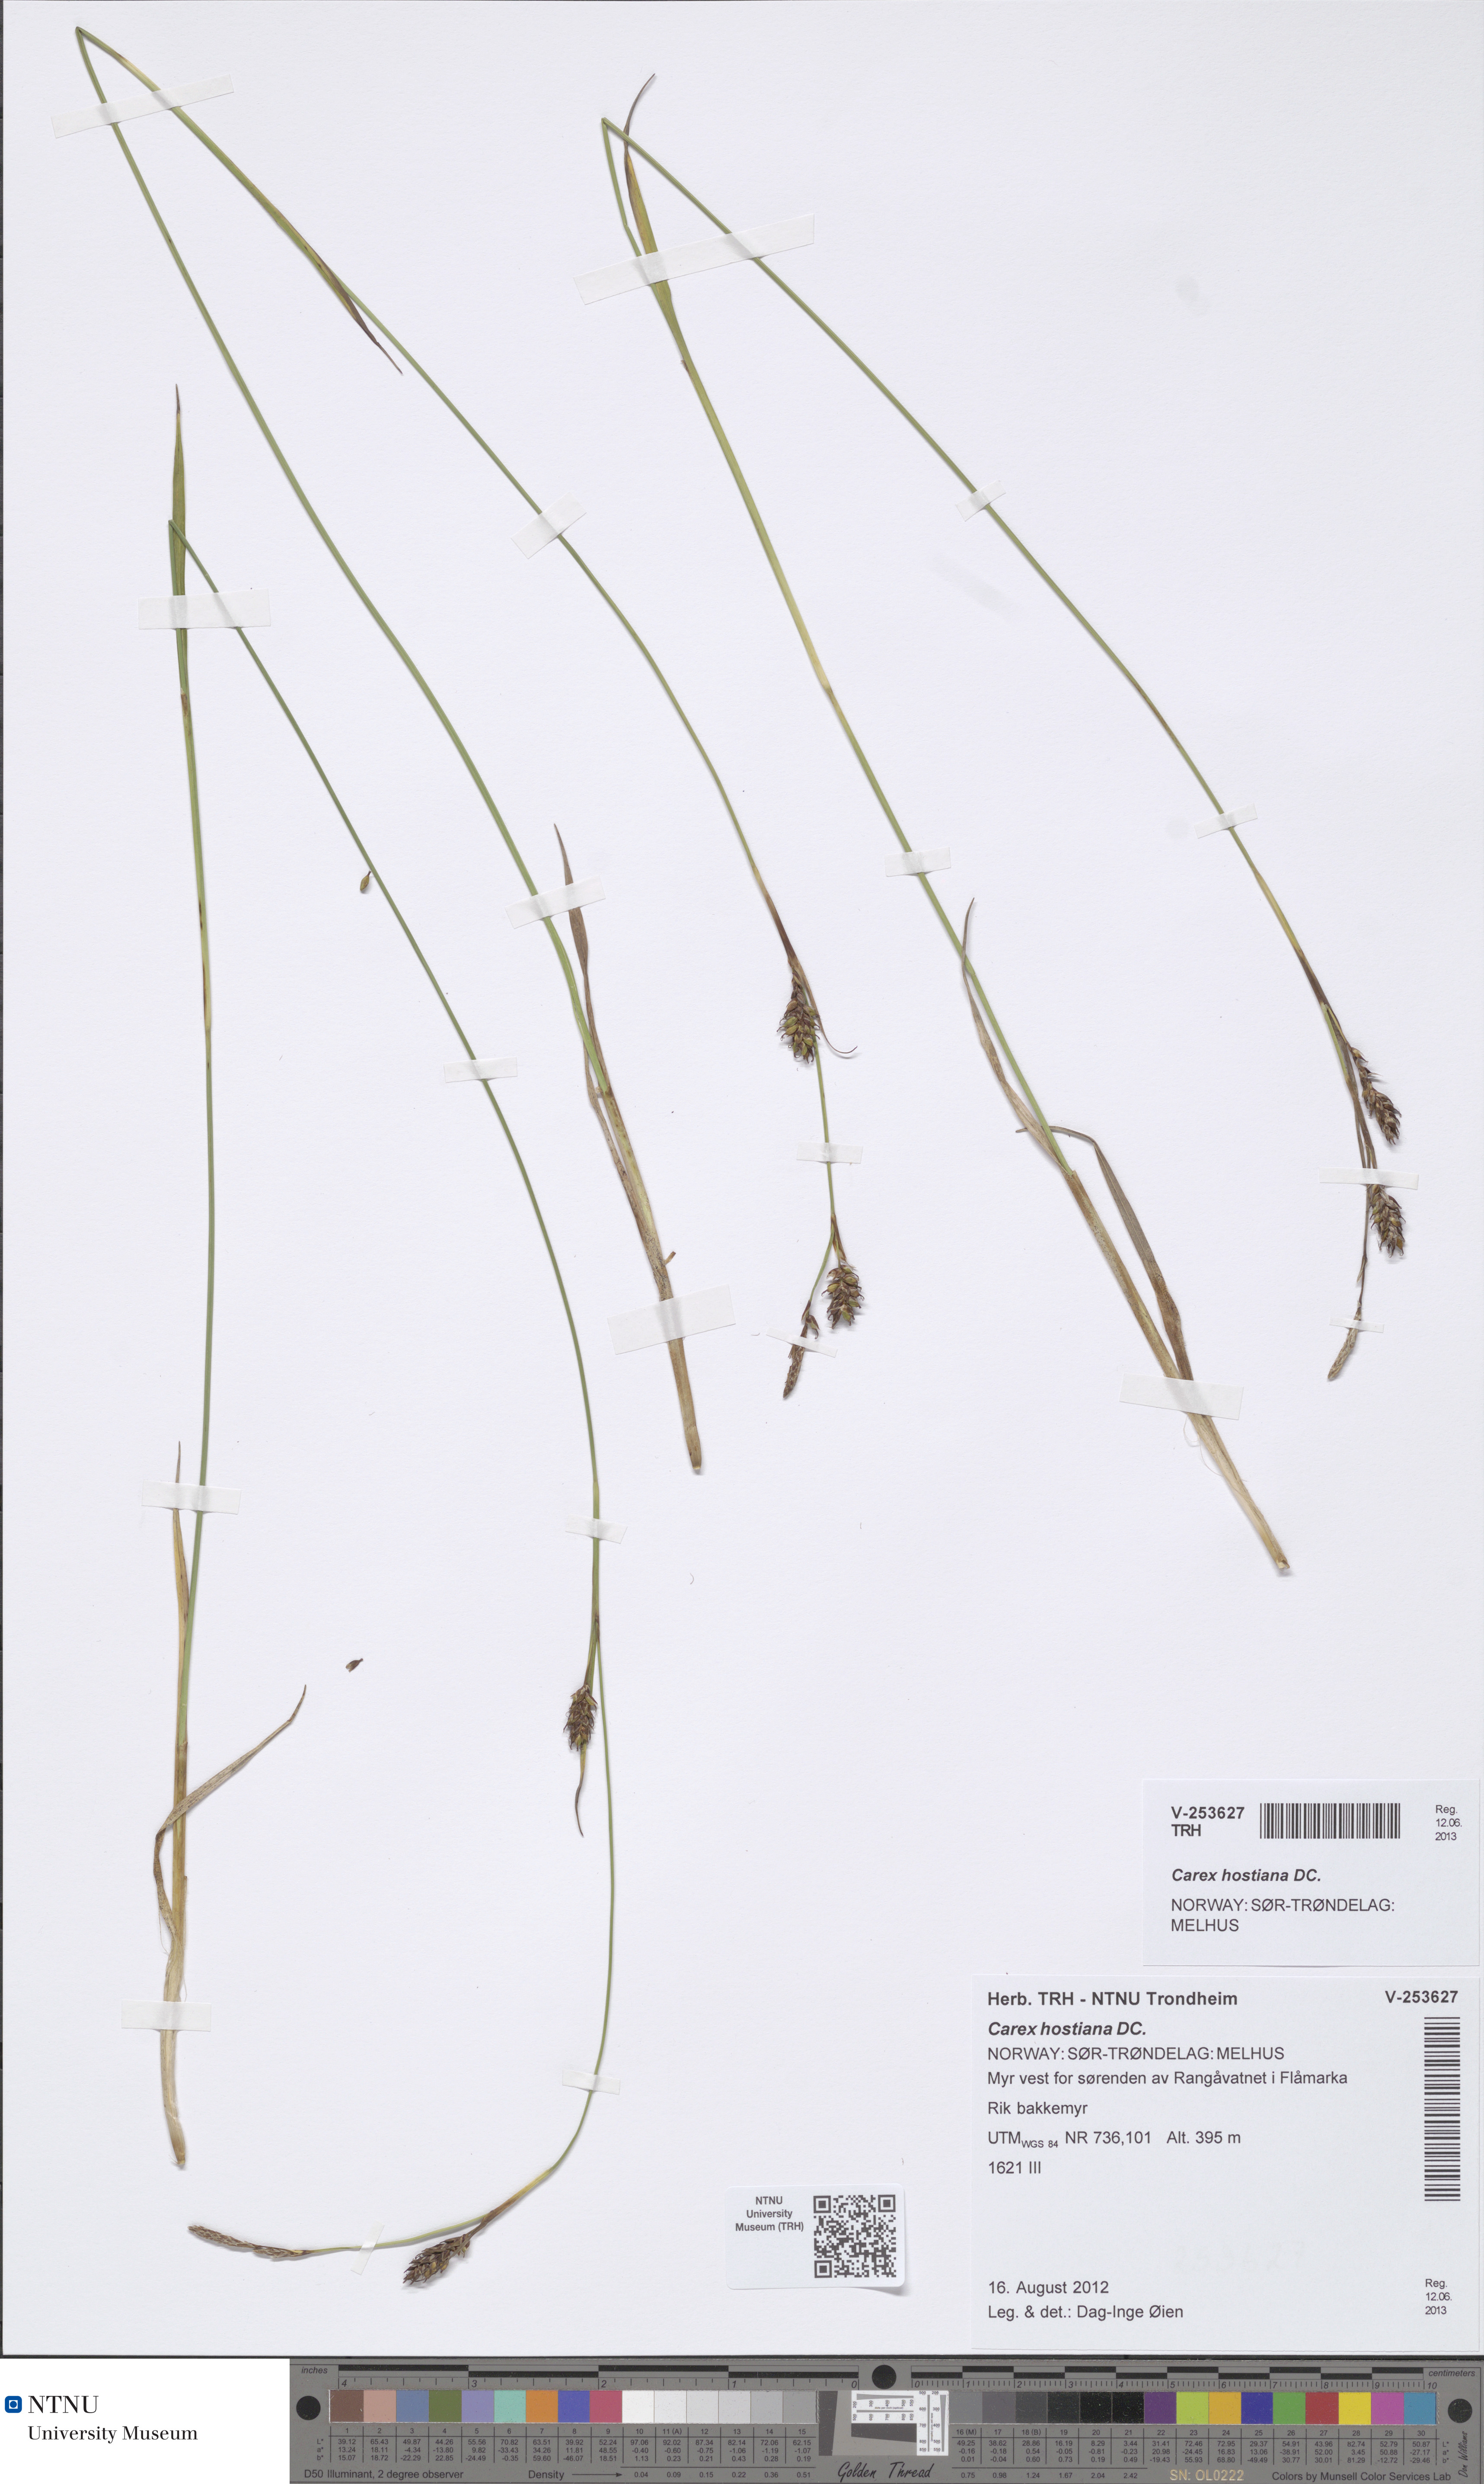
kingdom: Plantae
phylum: Tracheophyta
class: Liliopsida
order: Poales
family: Cyperaceae
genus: Carex
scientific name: Carex hostiana
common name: Tawny sedge
